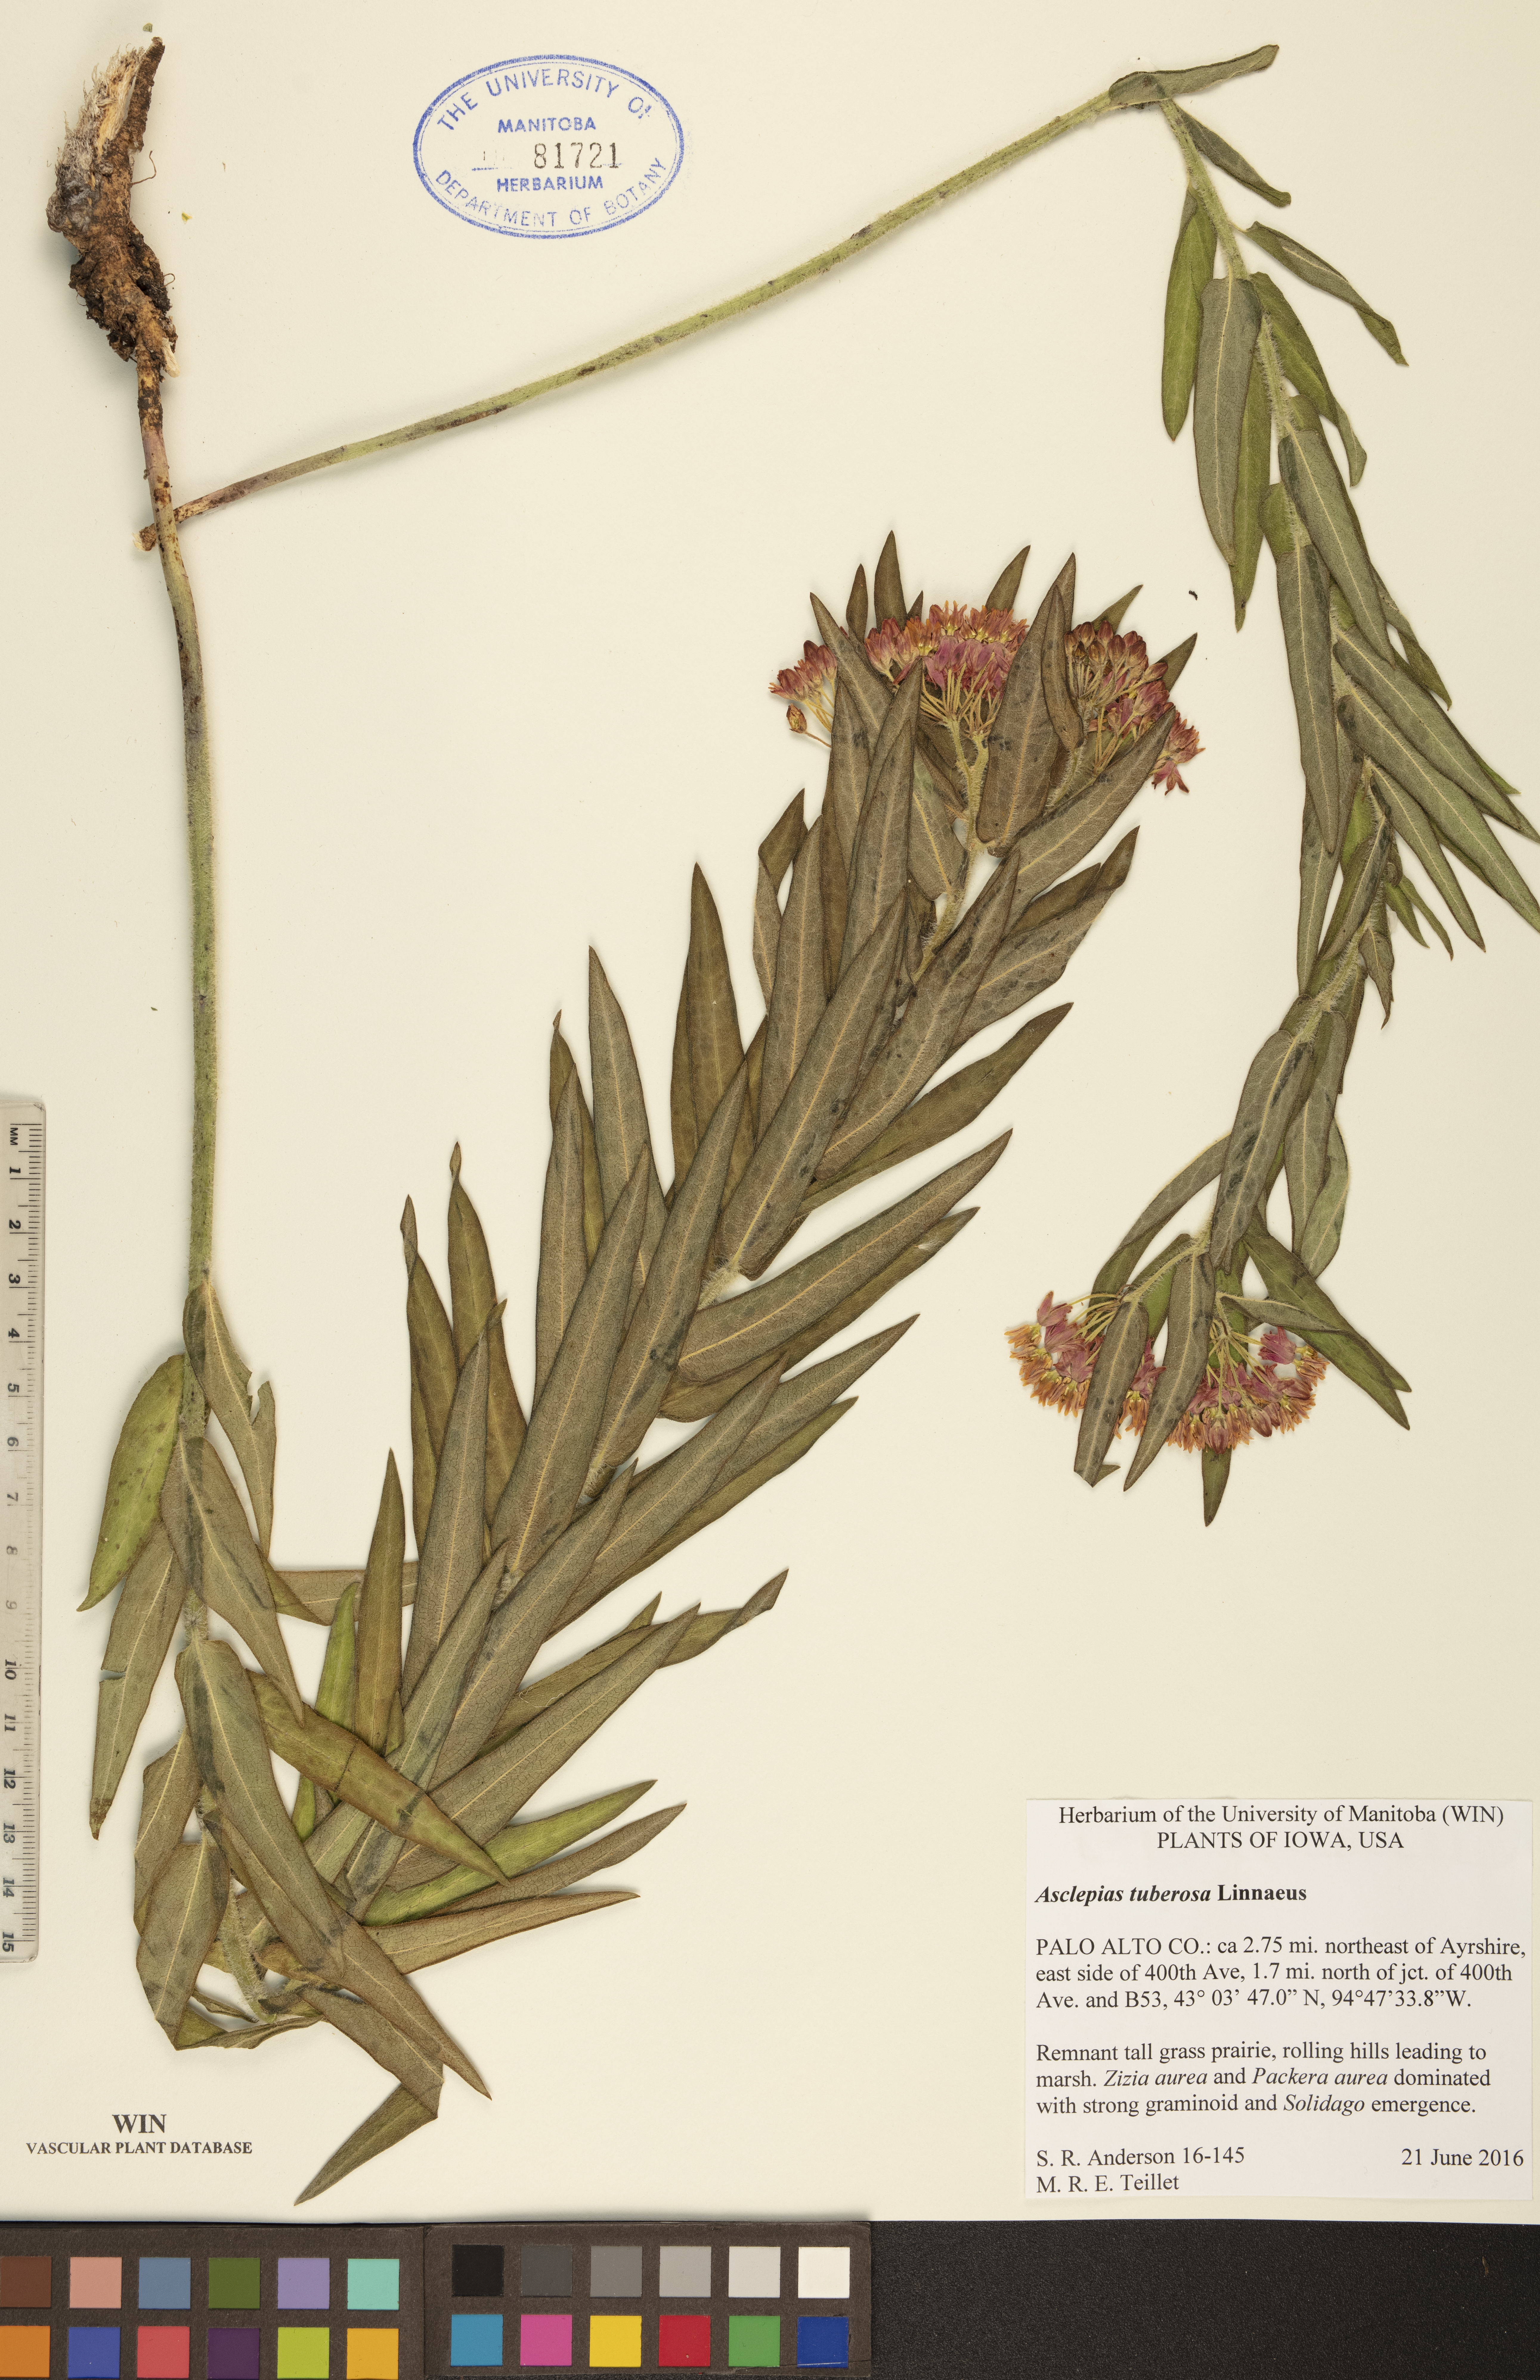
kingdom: Plantae
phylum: Tracheophyta
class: Magnoliopsida
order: Gentianales
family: Apocynaceae
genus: Asclepias
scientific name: Asclepias tuberosa
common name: Butterfly milkweed
